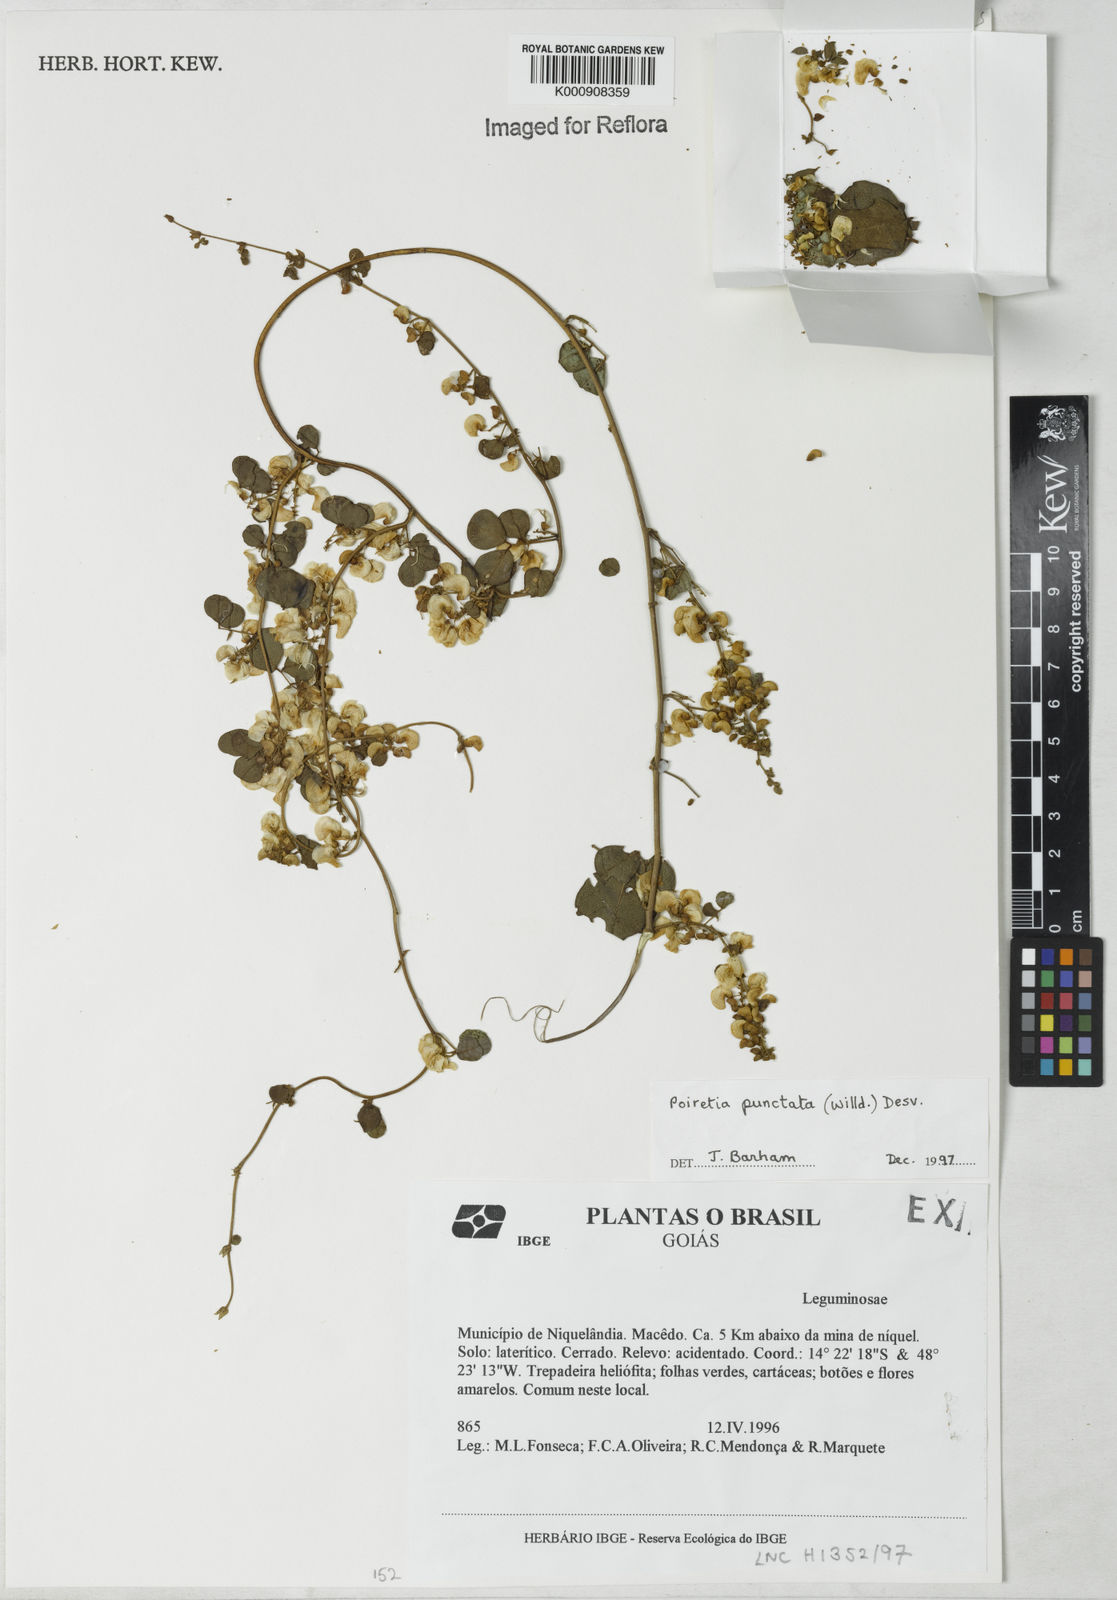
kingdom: Plantae
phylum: Tracheophyta
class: Magnoliopsida
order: Fabales
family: Fabaceae
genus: Poiretia
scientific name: Poiretia punctata
